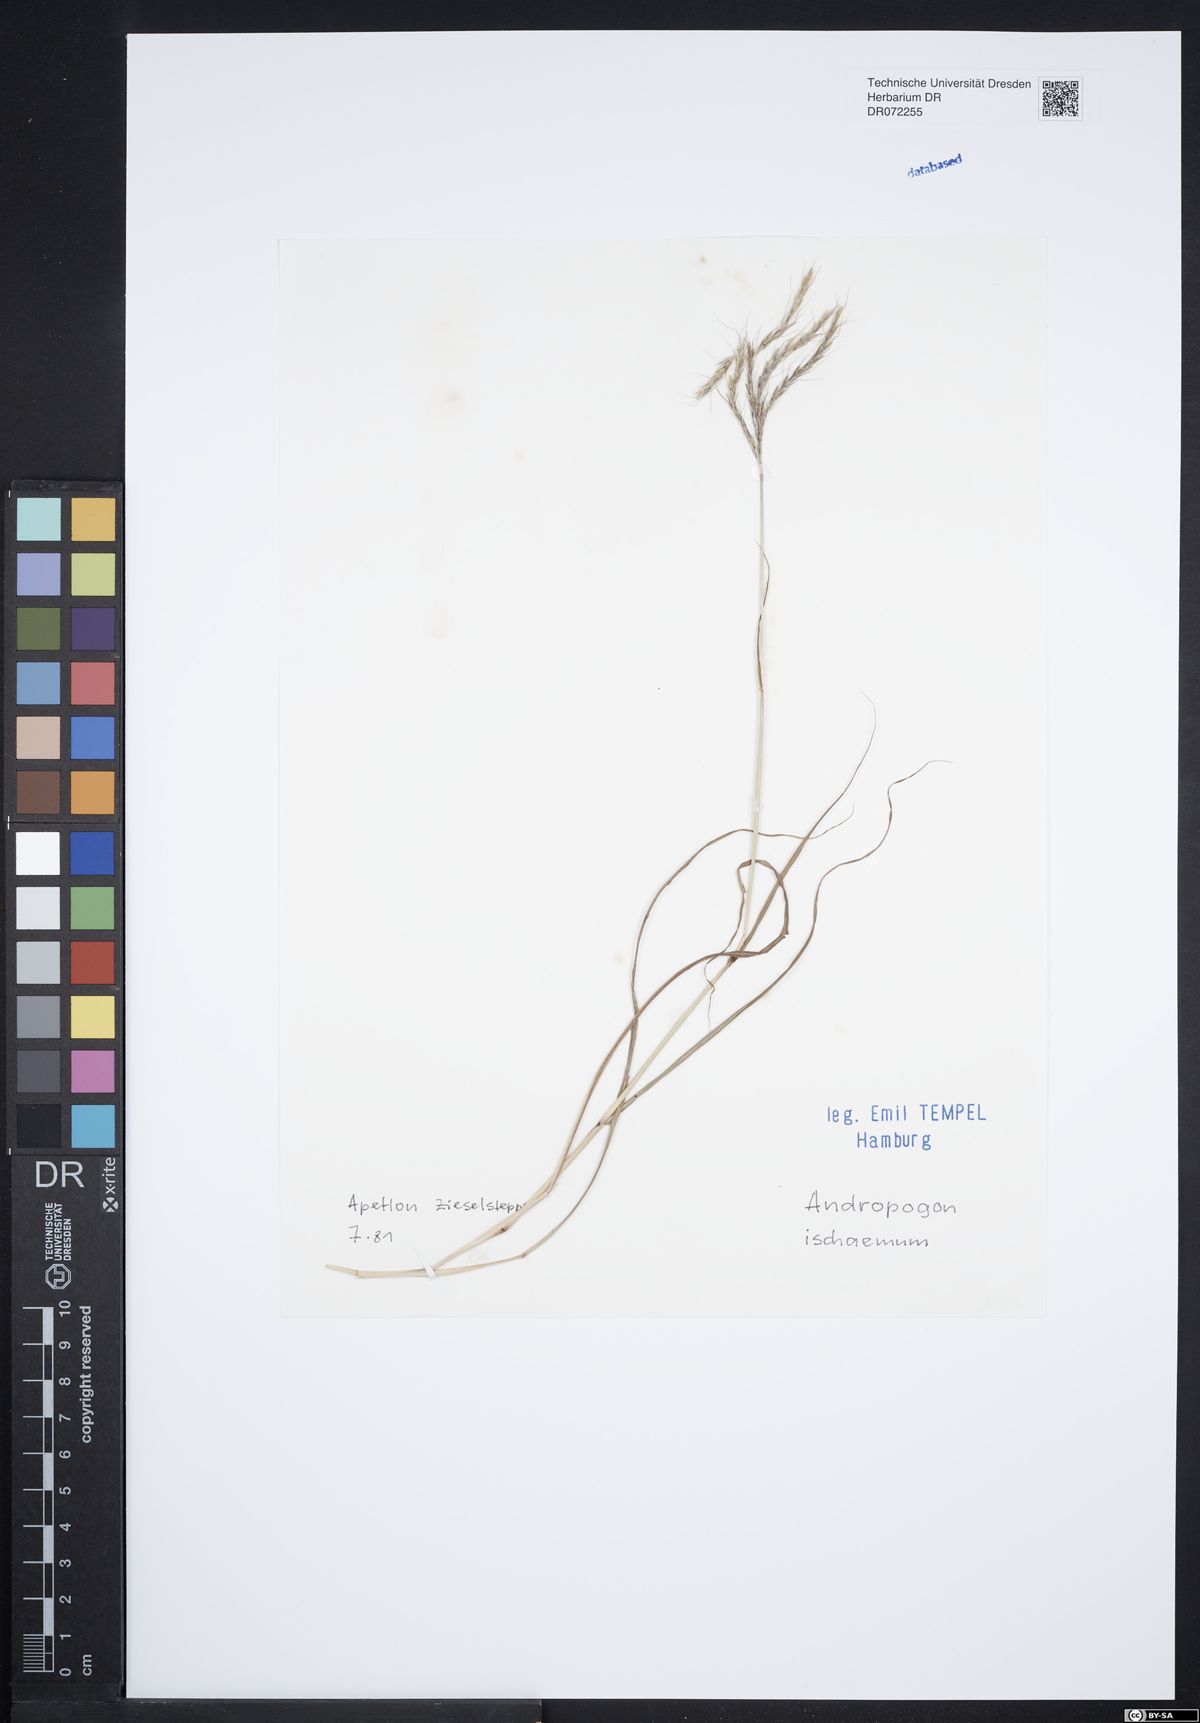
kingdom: Plantae
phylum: Tracheophyta
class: Liliopsida
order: Poales
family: Poaceae
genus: Bothriochloa
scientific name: Bothriochloa ischaemum
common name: Yellow bluestem
